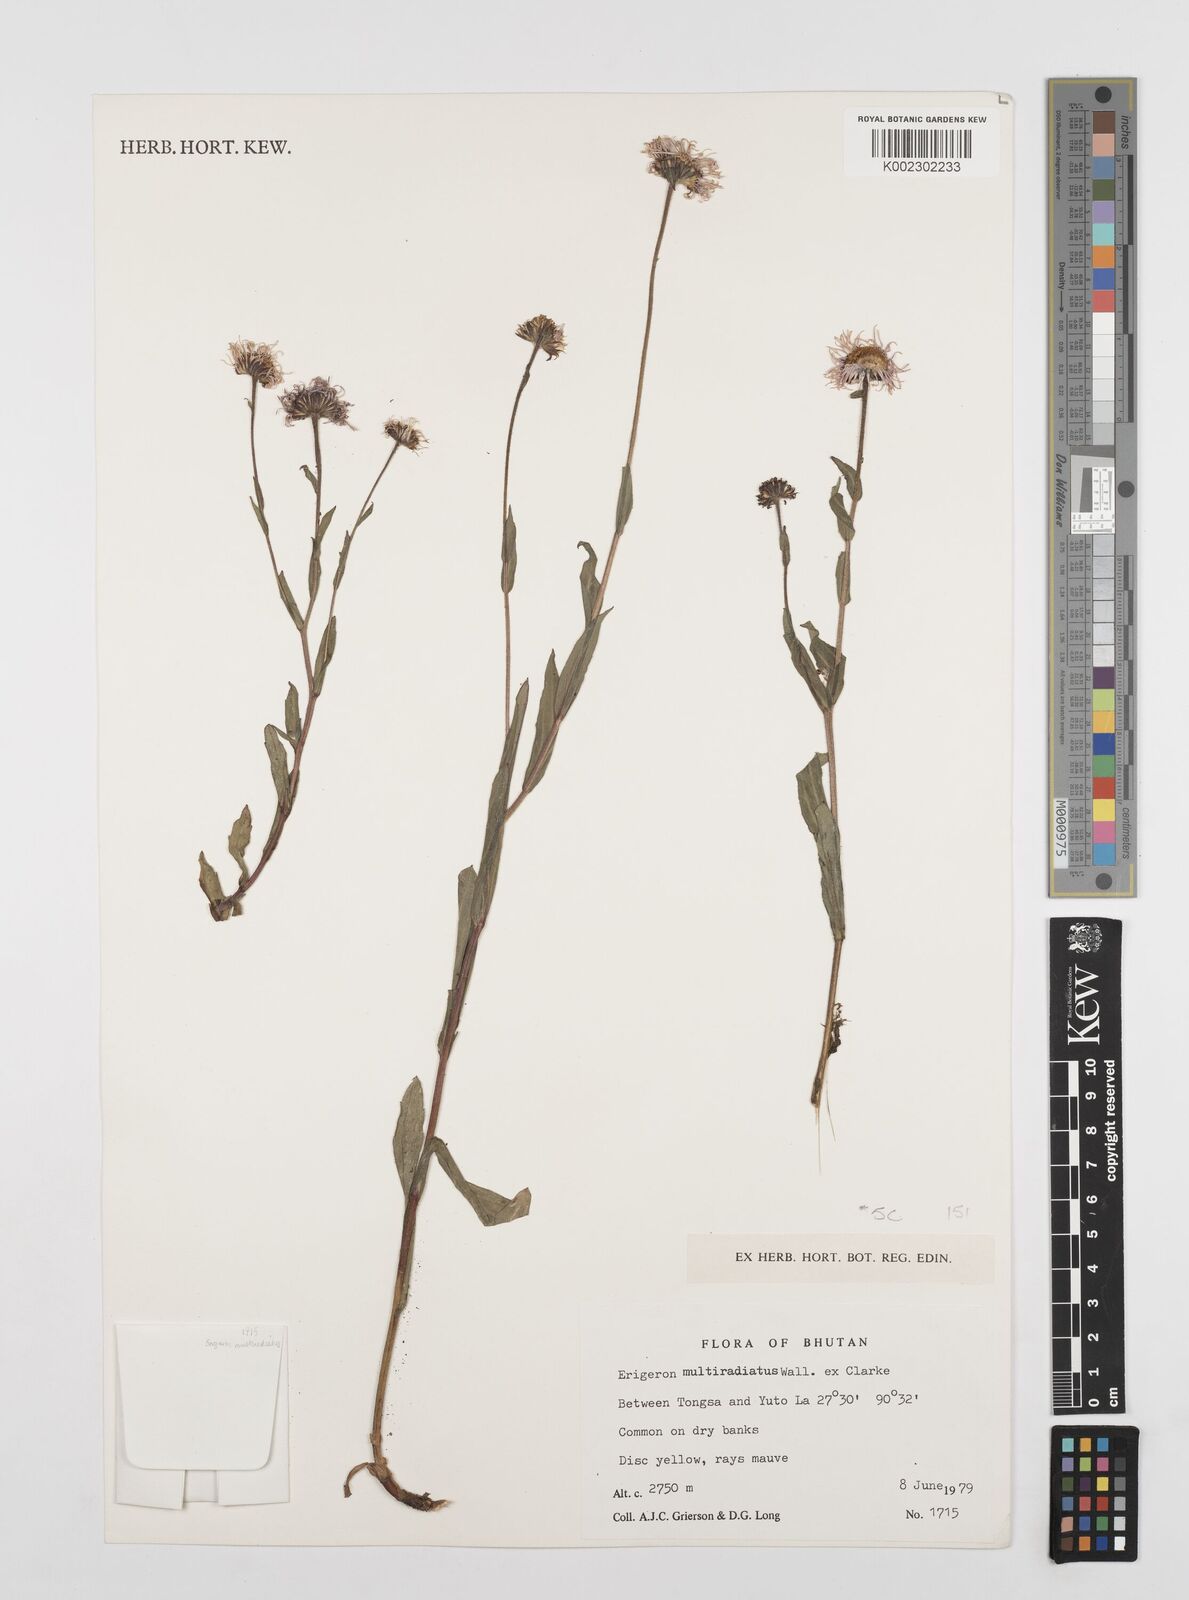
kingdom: Plantae
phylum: Tracheophyta
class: Magnoliopsida
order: Asterales
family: Asteraceae
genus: Erigeron
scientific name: Erigeron multiradiatus
